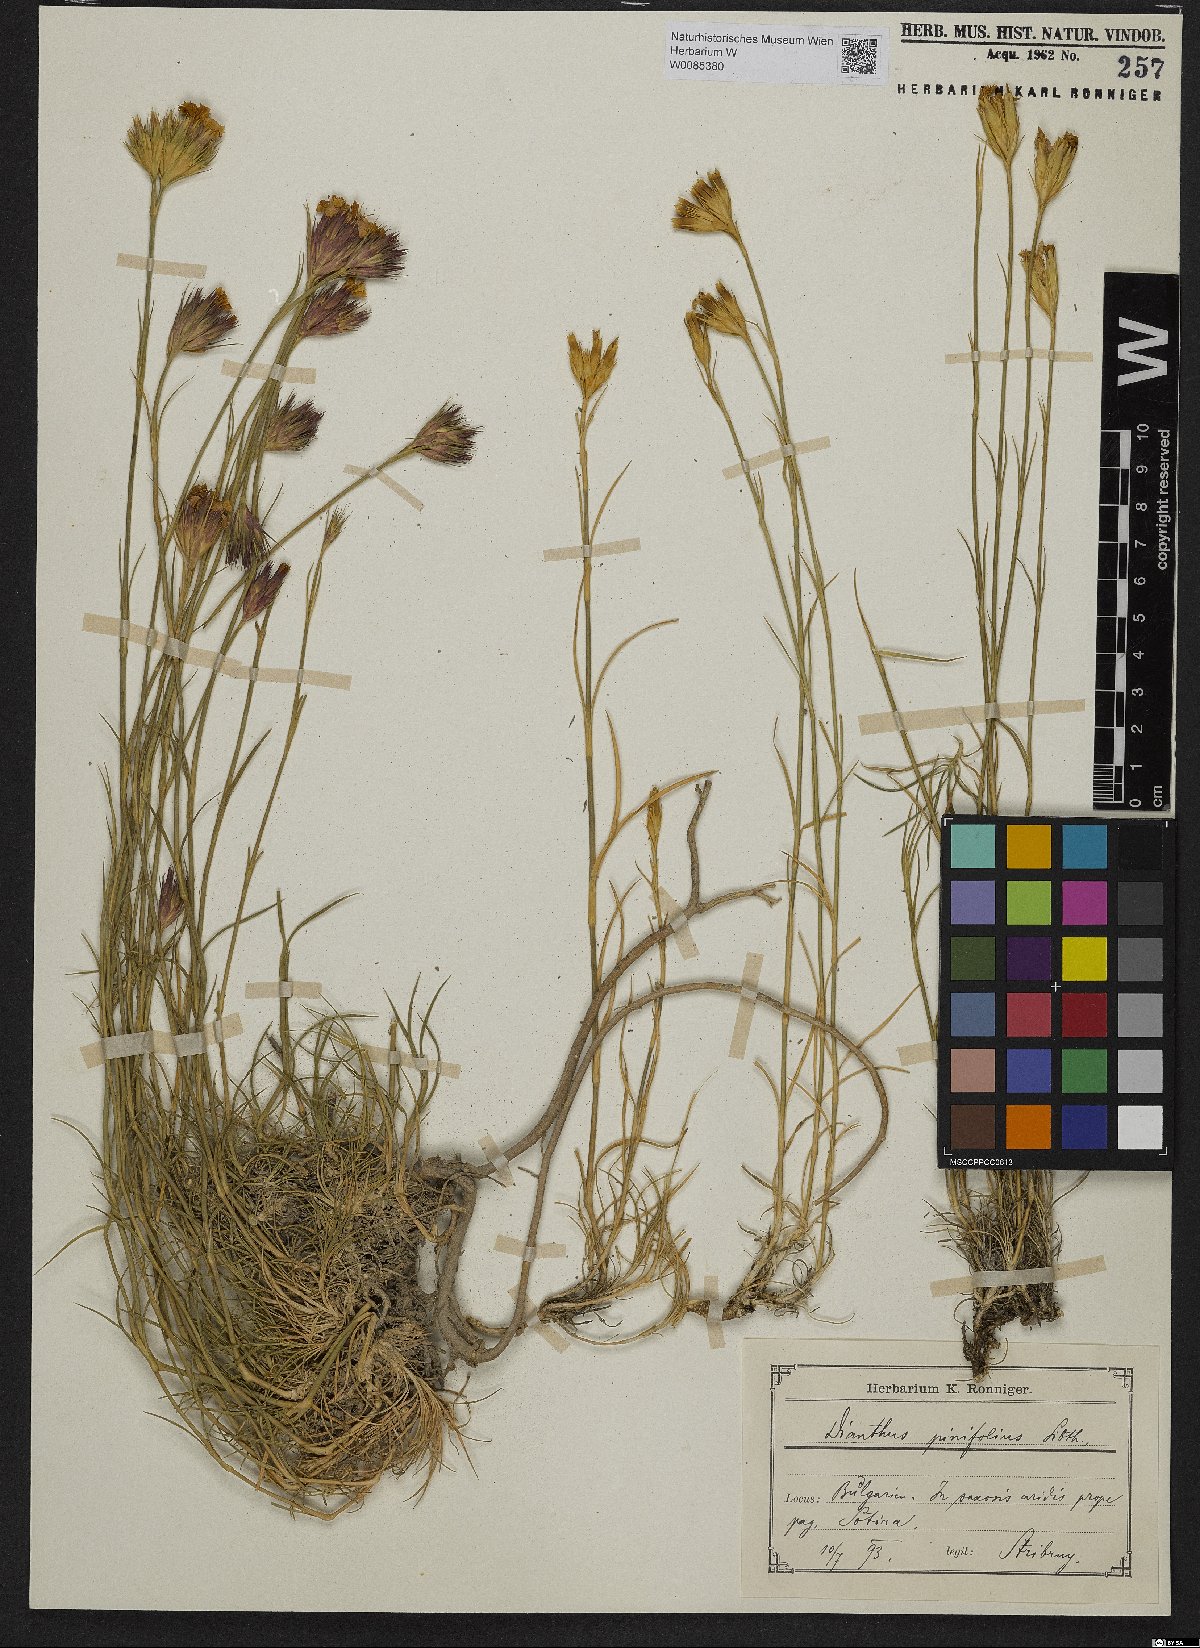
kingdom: Plantae
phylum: Tracheophyta
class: Magnoliopsida
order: Caryophyllales
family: Caryophyllaceae
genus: Dianthus
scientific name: Dianthus pinifolius
